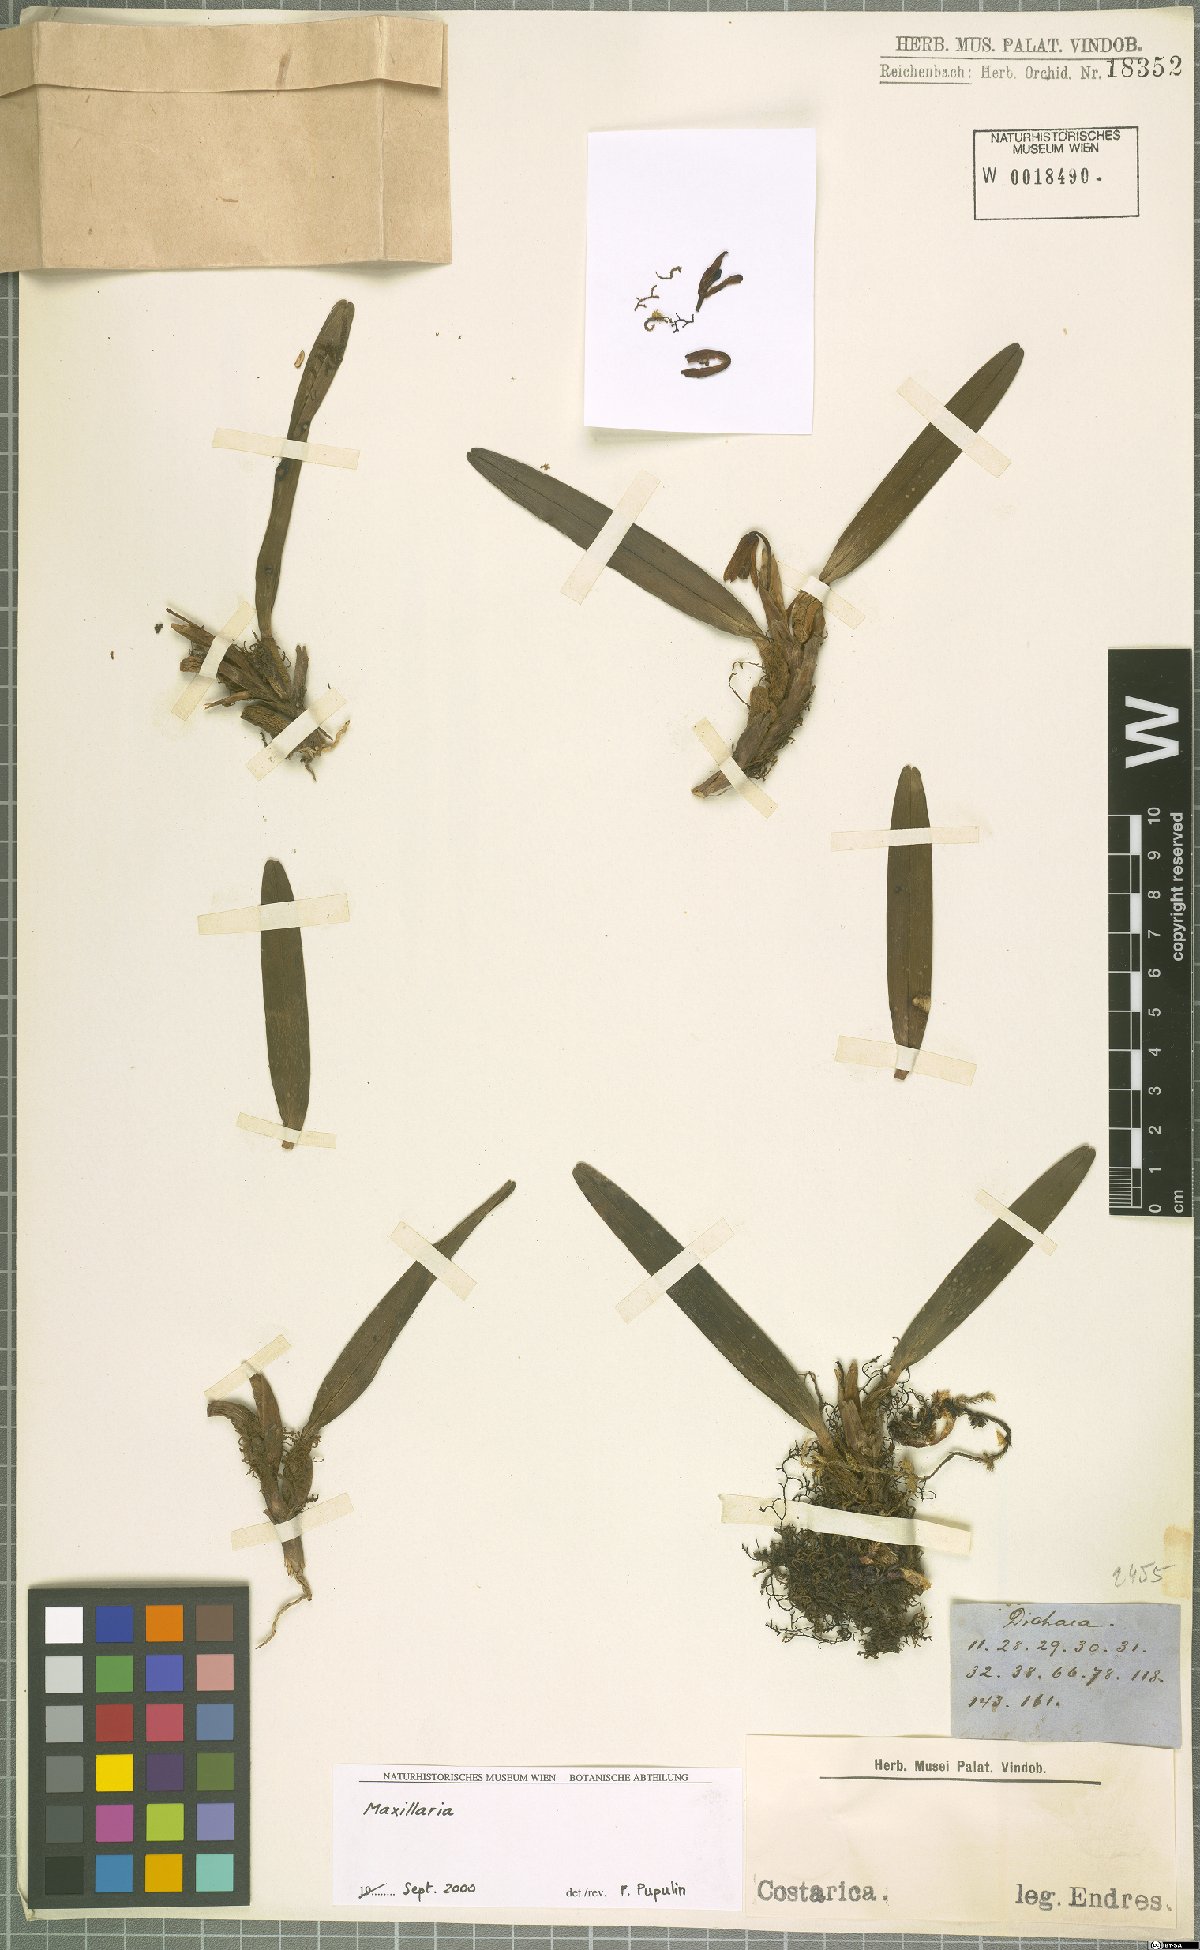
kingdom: Plantae
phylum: Tracheophyta
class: Liliopsida
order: Asparagales
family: Orchidaceae
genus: Maxillaria
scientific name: Maxillaria
